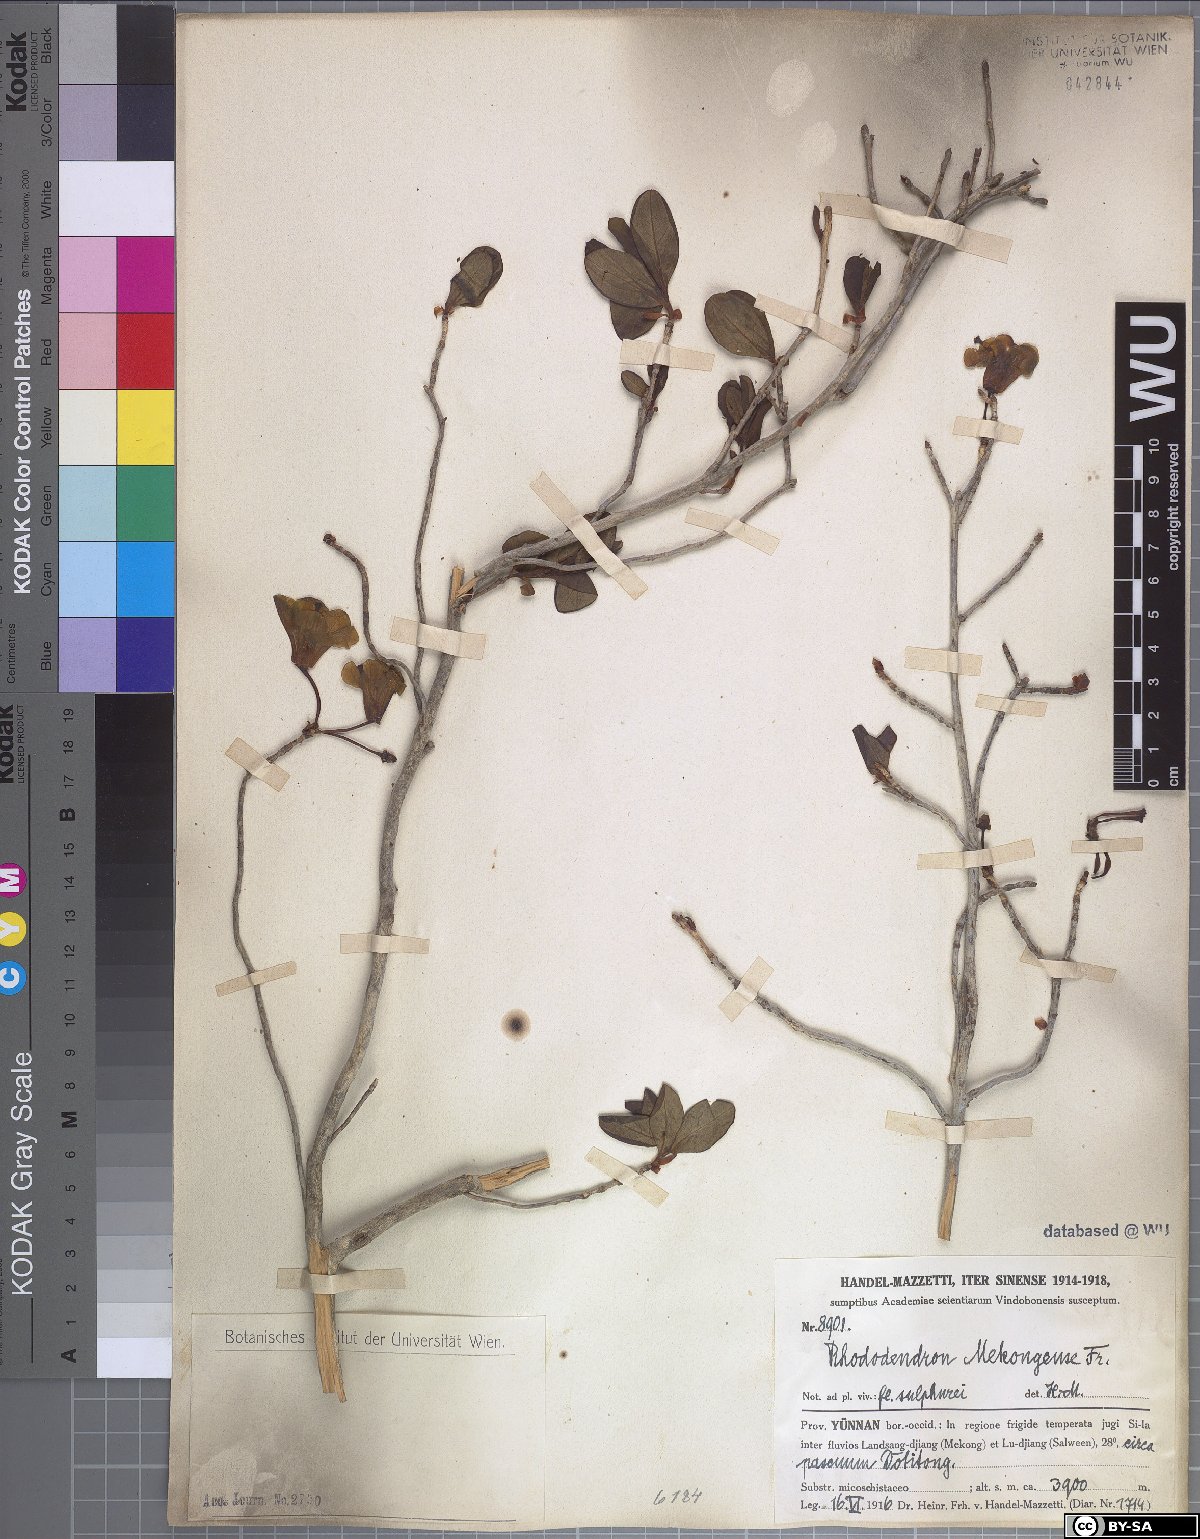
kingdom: Plantae
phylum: Tracheophyta
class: Magnoliopsida
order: Ericales
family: Ericaceae
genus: Rhododendron
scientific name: Rhododendron mekongense
